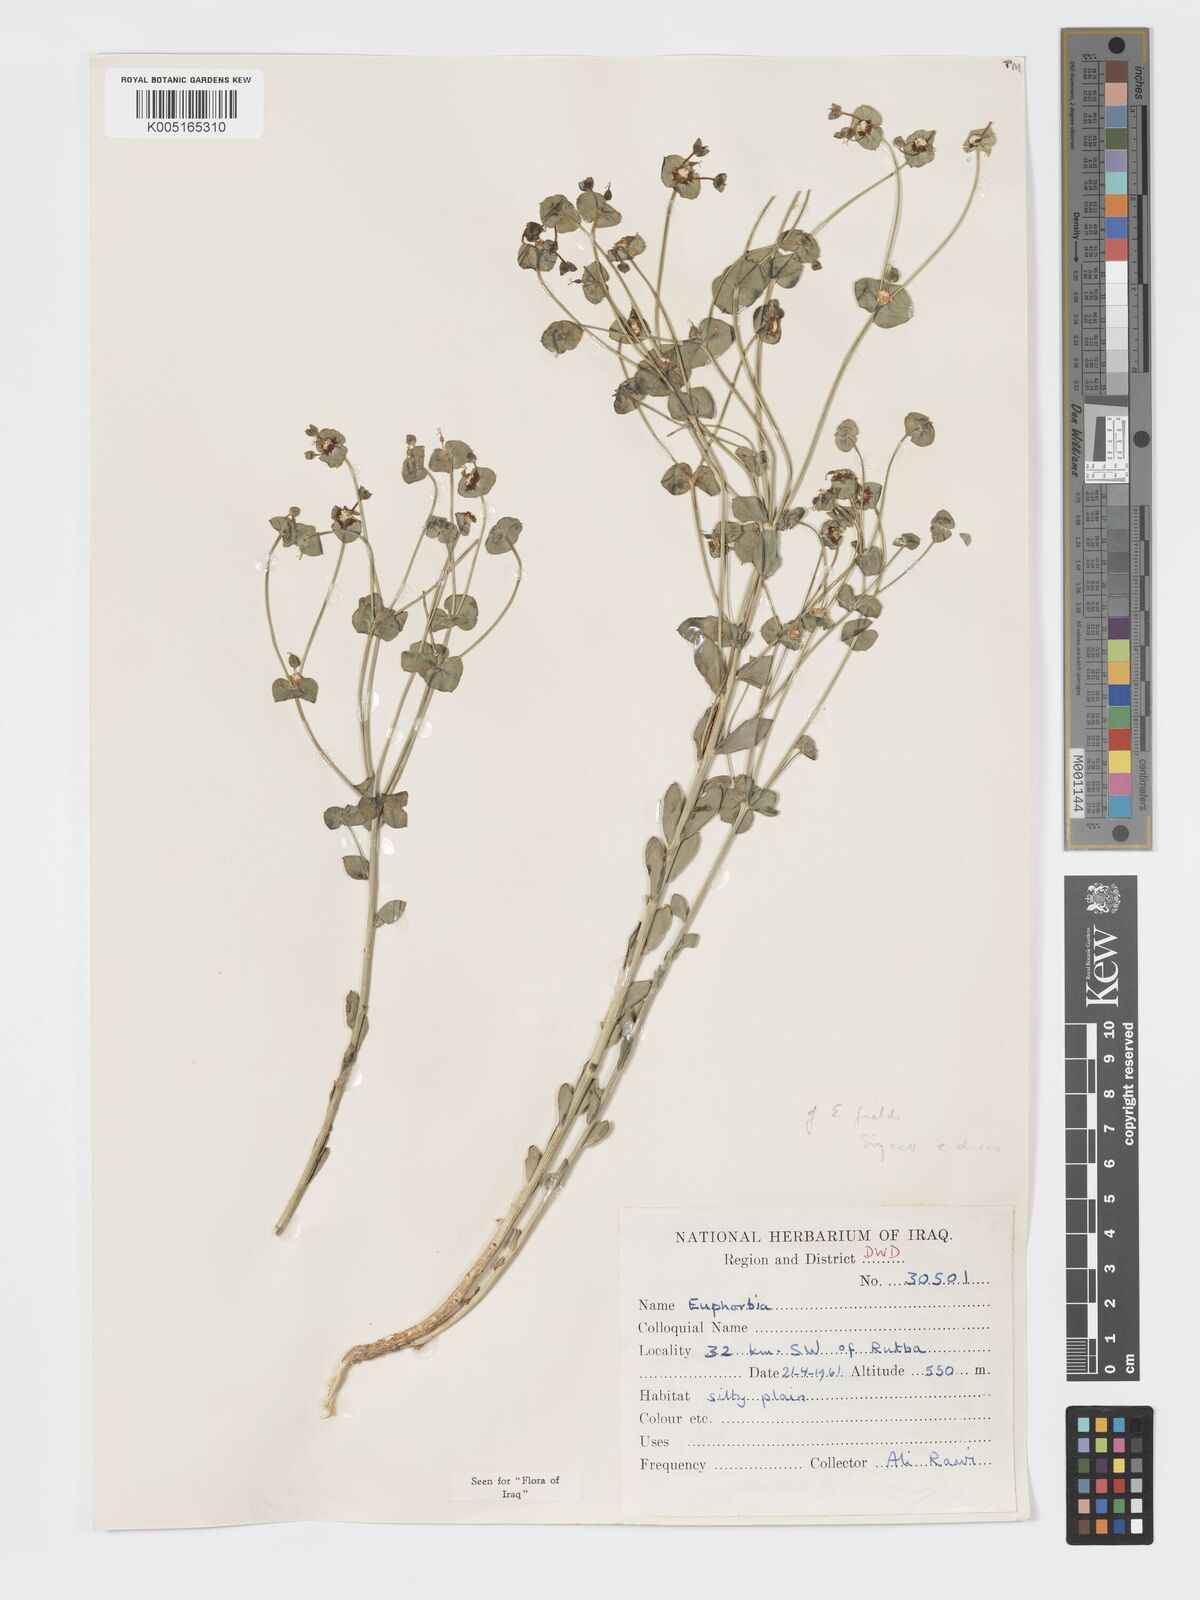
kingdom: Plantae
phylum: Tracheophyta
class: Magnoliopsida
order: Malpighiales
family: Euphorbiaceae
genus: Euphorbia
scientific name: Euphorbia cuspidata
